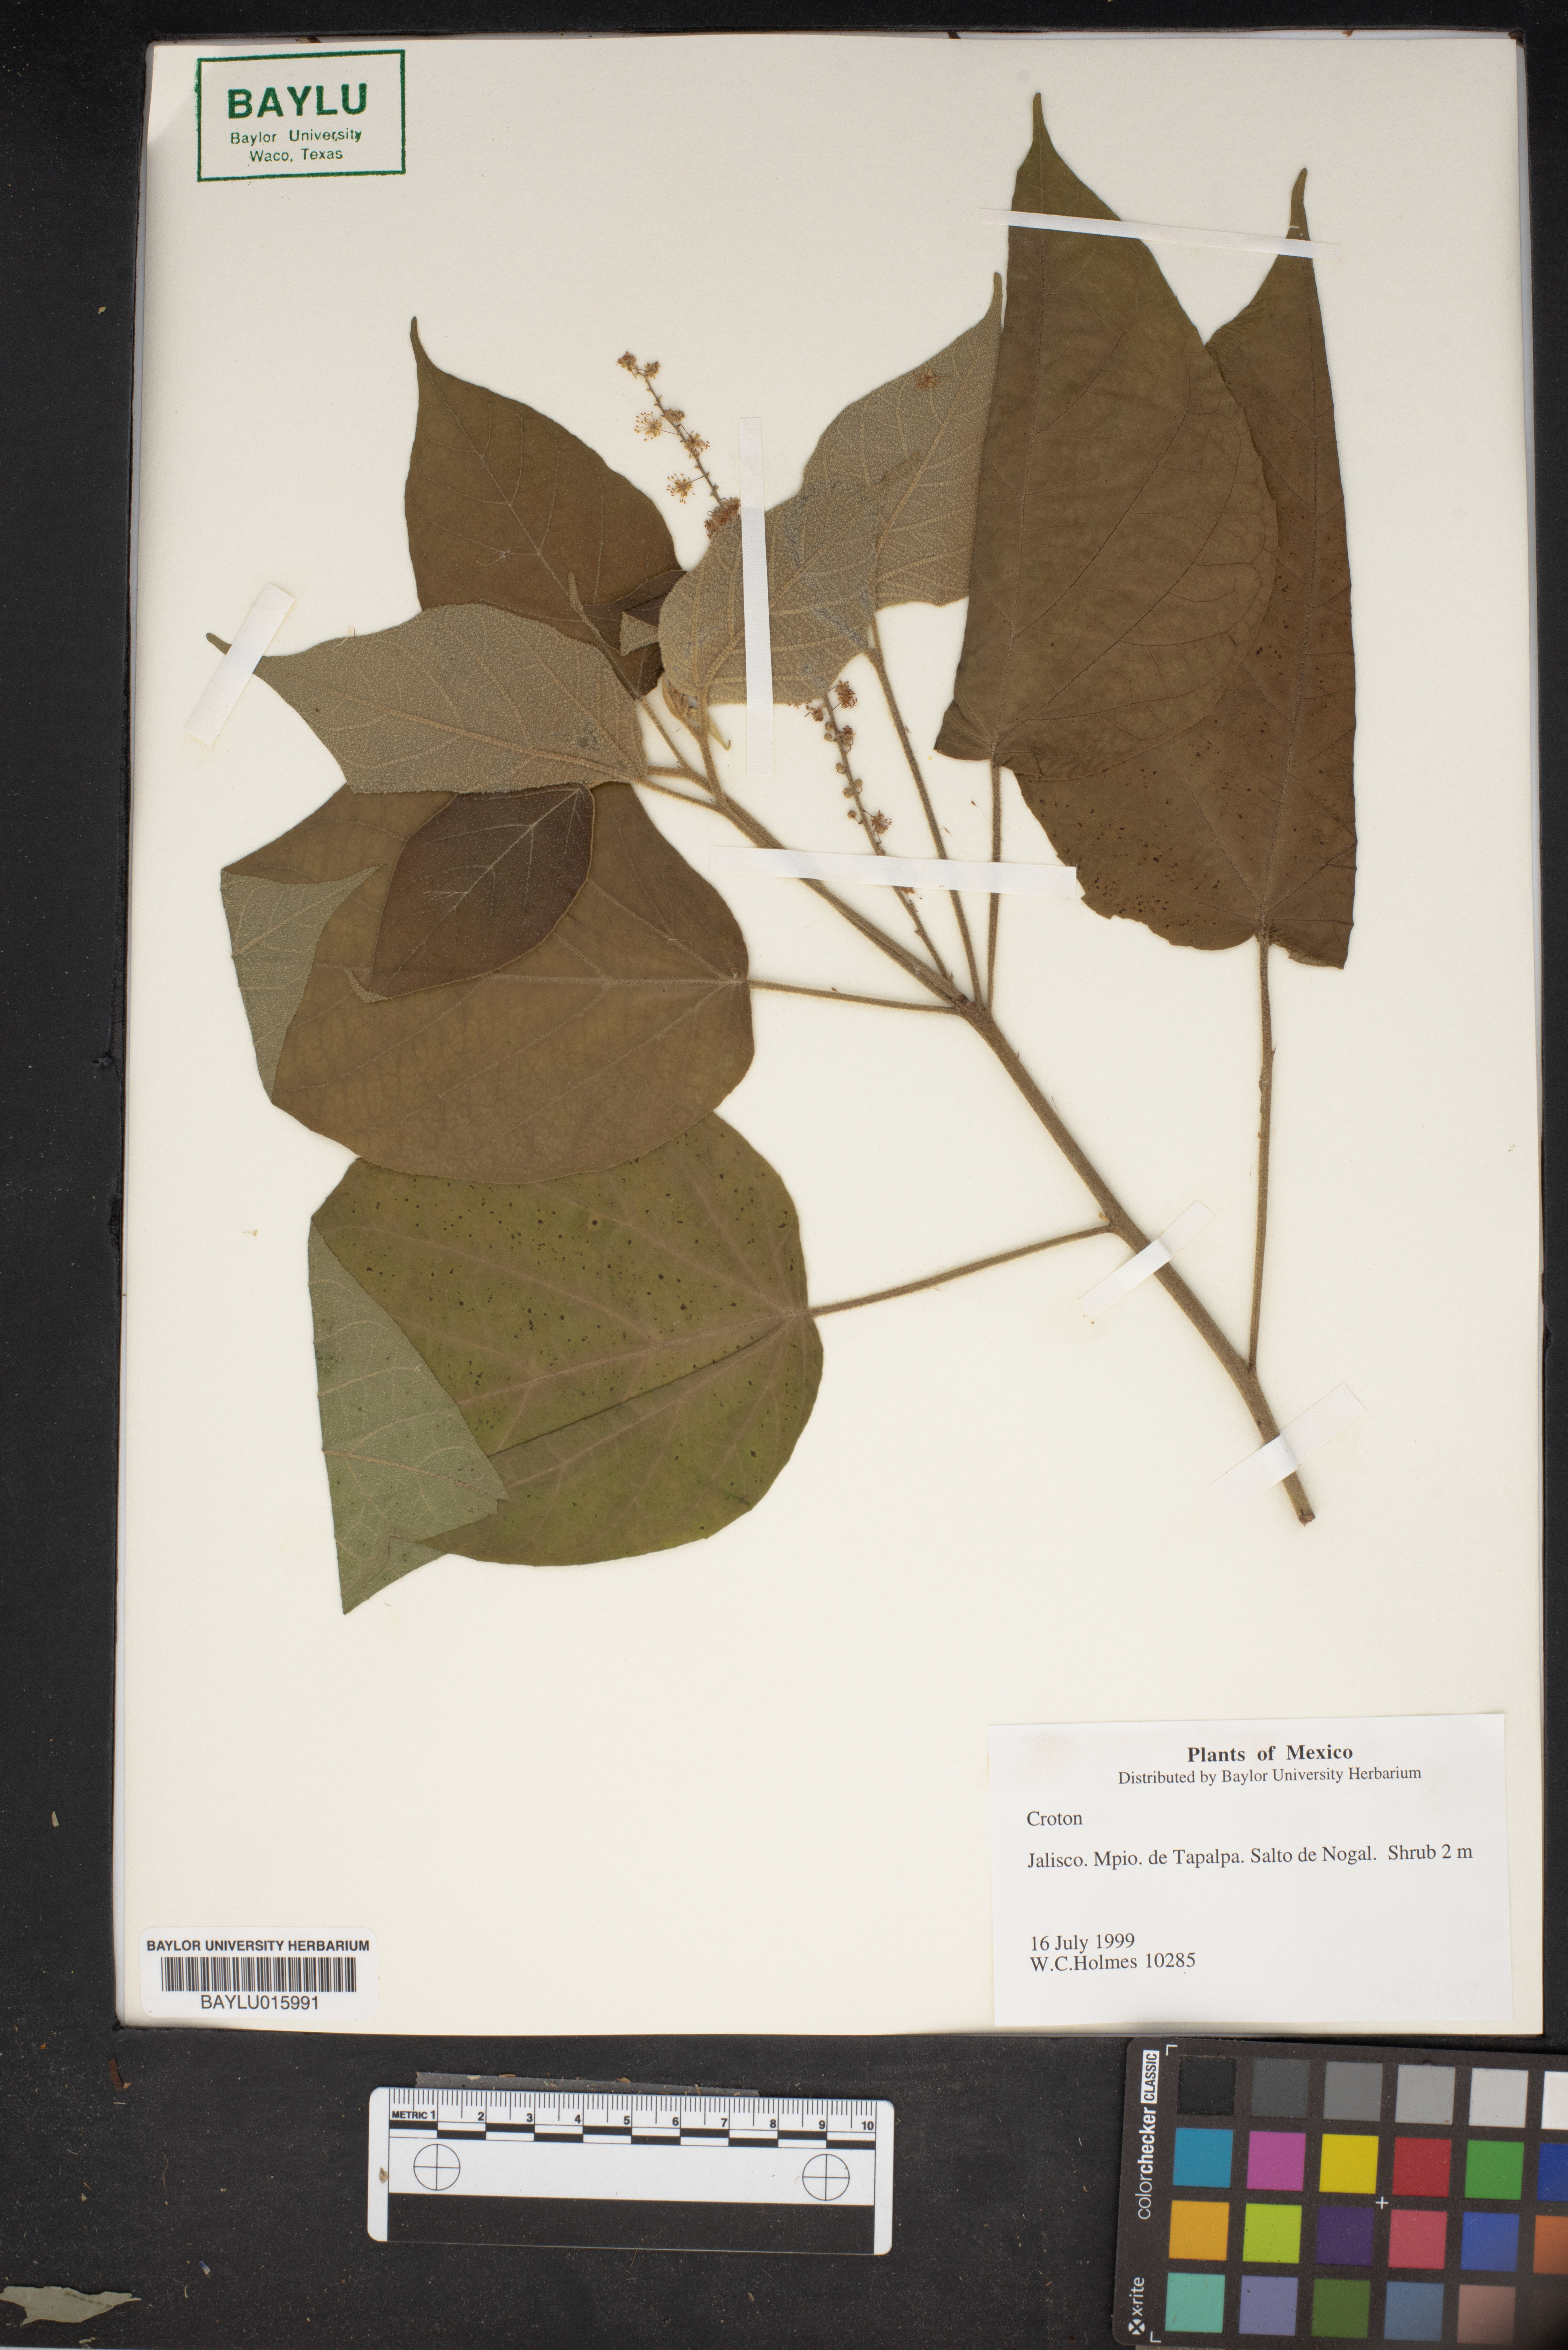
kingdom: Plantae
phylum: Tracheophyta
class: Magnoliopsida
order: Malpighiales
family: Euphorbiaceae
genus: Croton
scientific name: Croton
